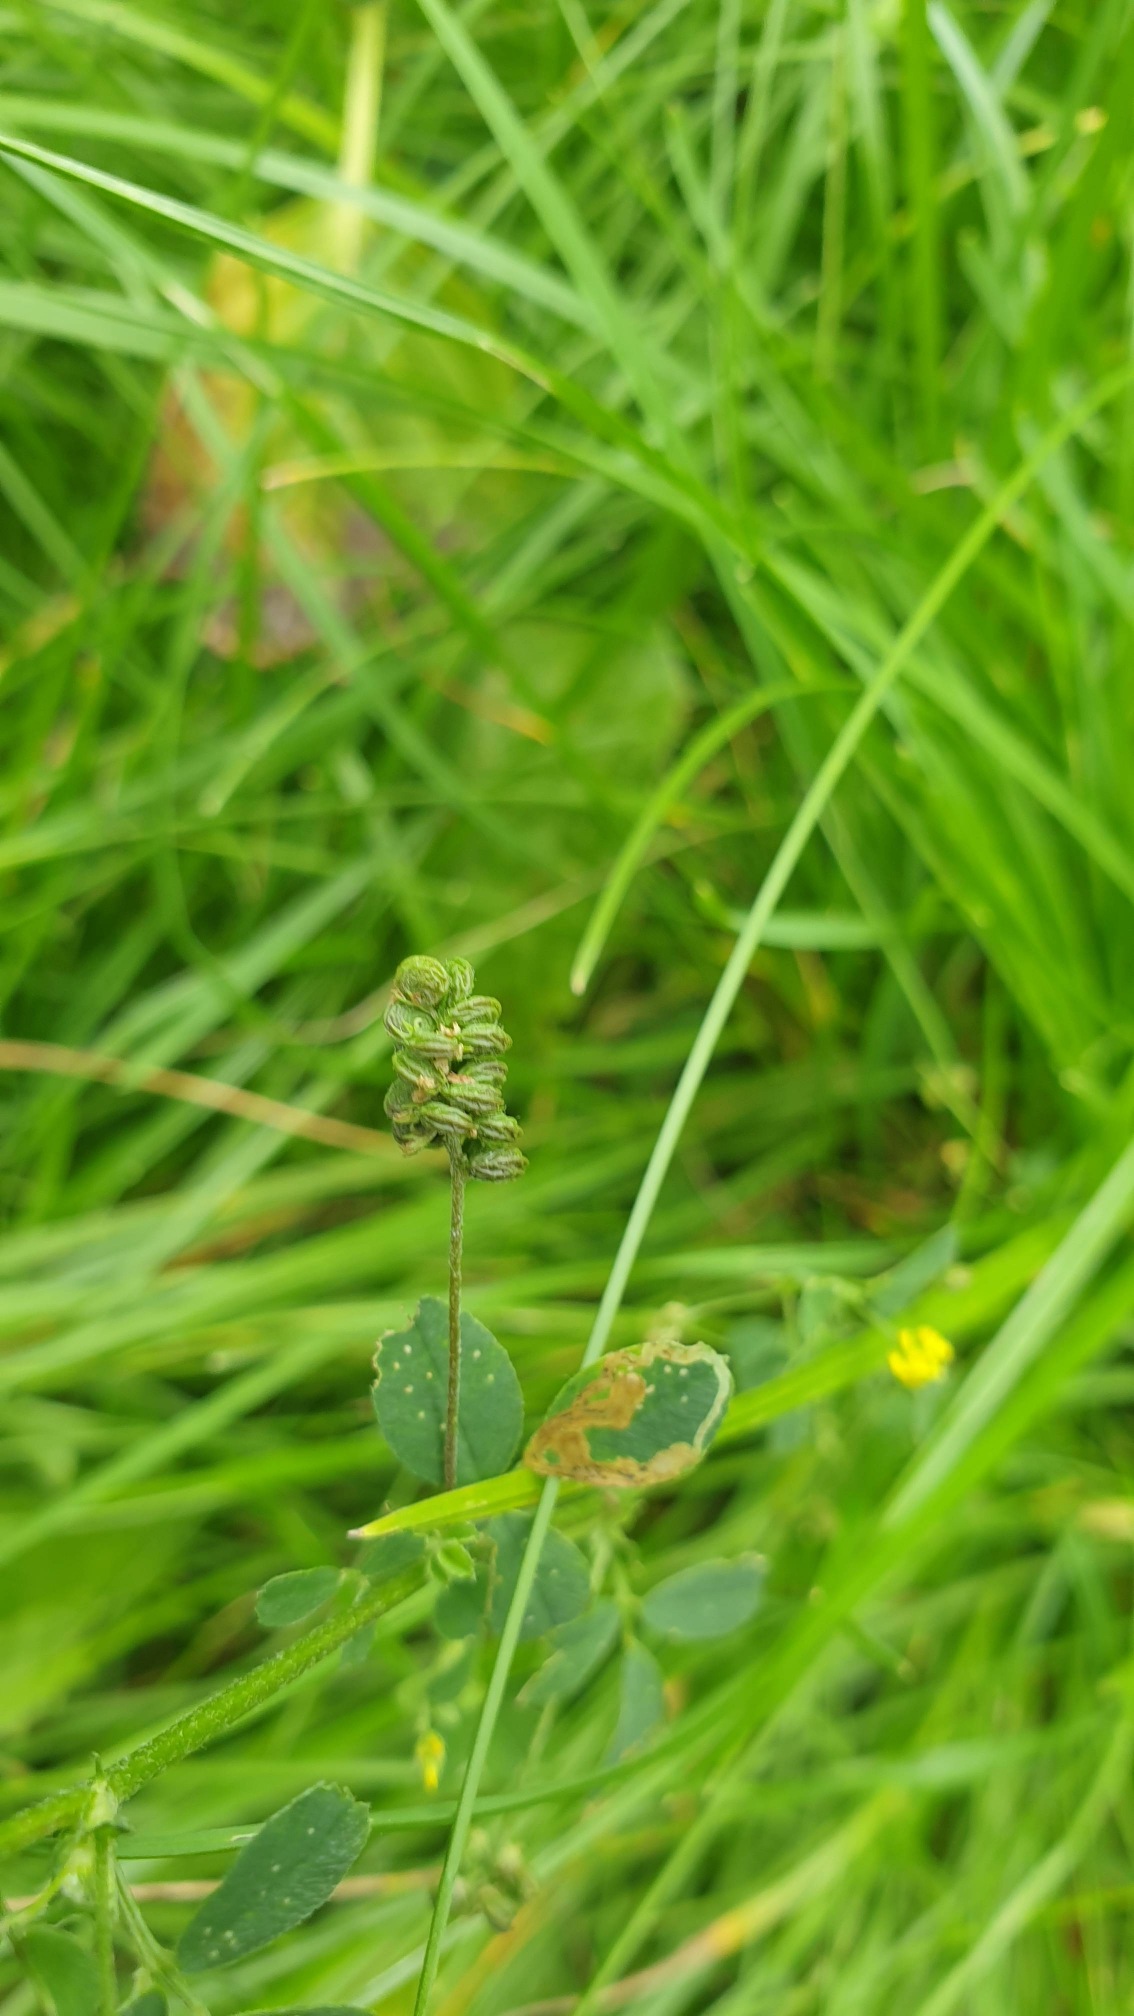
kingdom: Plantae
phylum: Tracheophyta
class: Magnoliopsida
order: Fabales
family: Fabaceae
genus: Medicago
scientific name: Medicago lupulina
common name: Humle-sneglebælg
